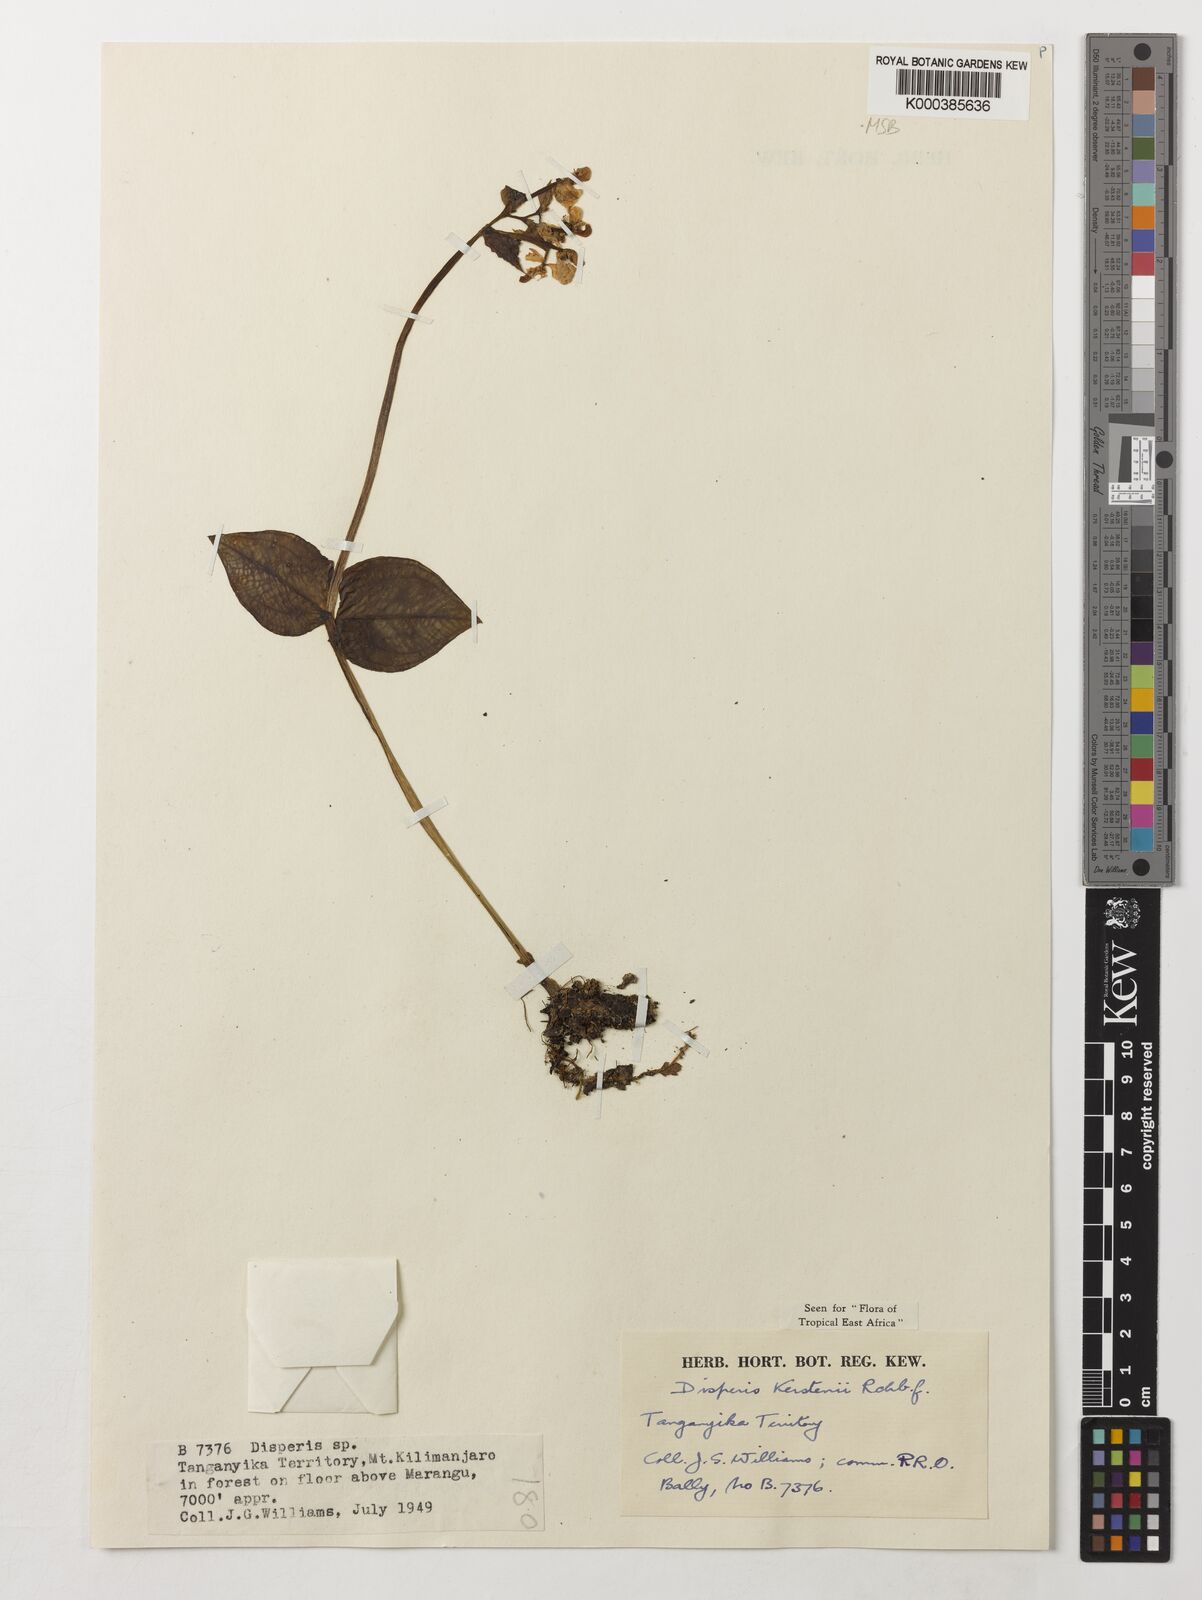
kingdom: Plantae
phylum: Tracheophyta
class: Liliopsida
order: Asparagales
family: Orchidaceae
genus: Disperis
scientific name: Disperis kerstenii
